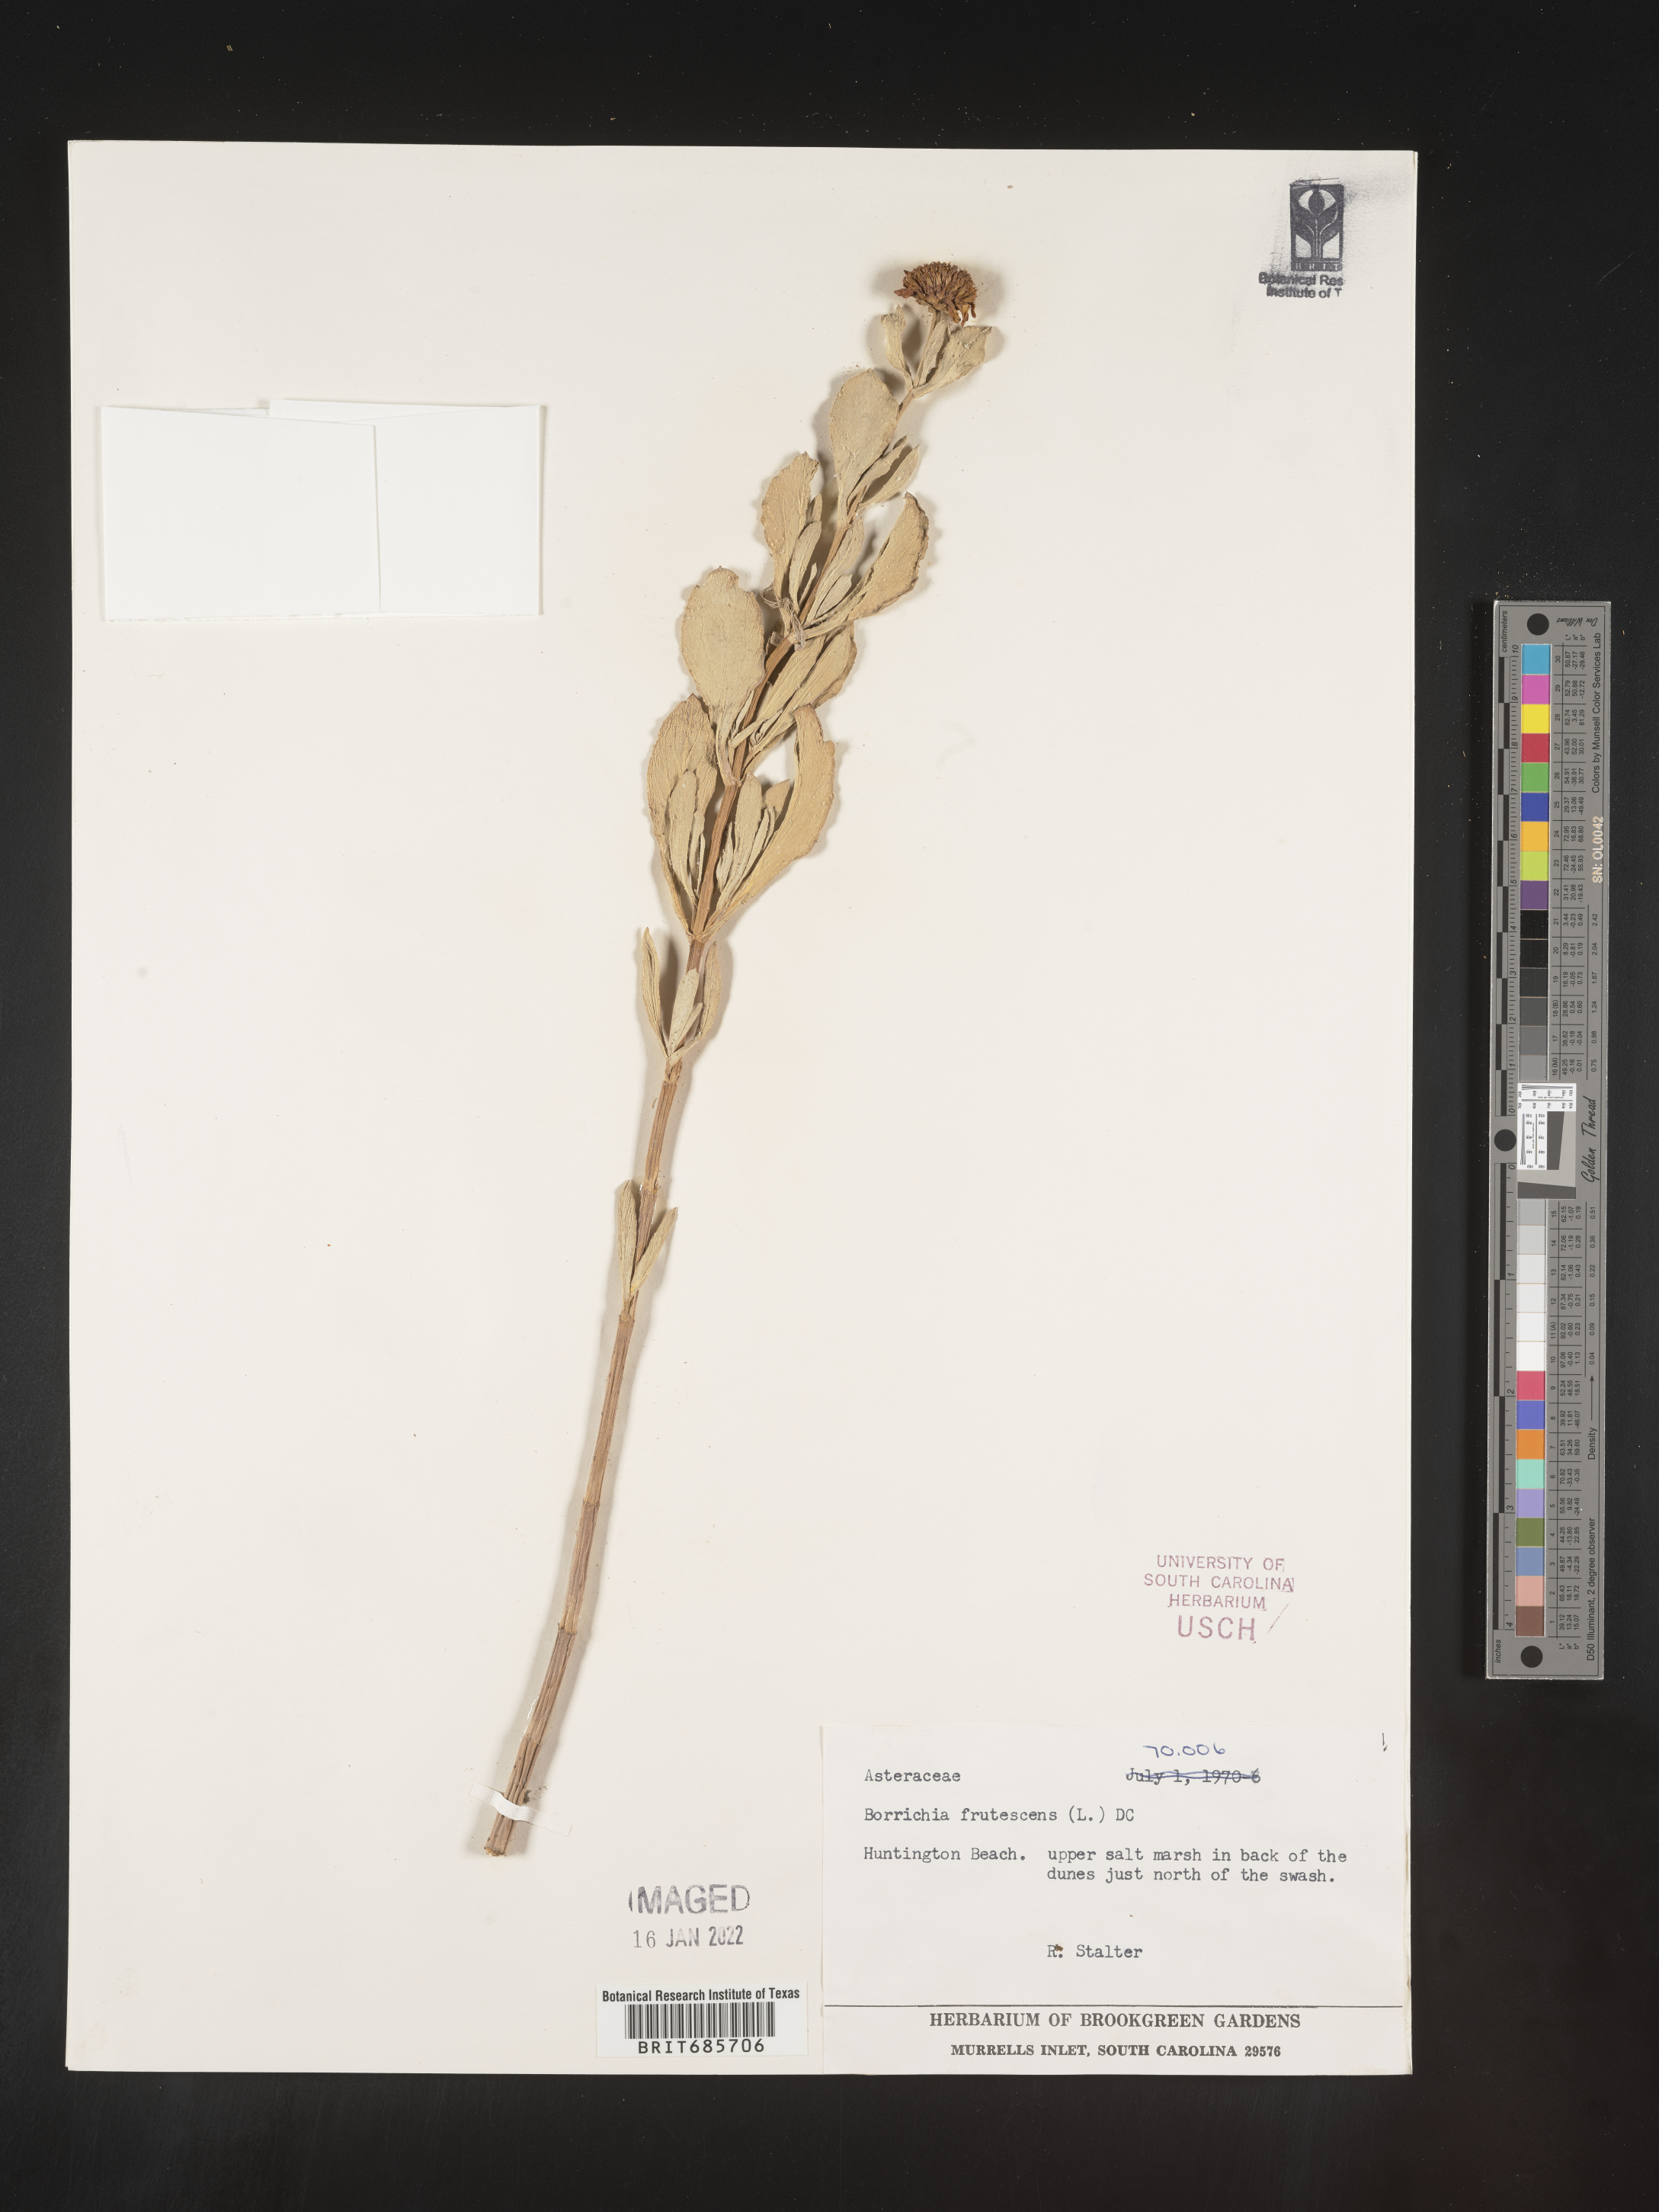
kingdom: Plantae
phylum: Tracheophyta
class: Magnoliopsida
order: Asterales
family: Asteraceae
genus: Borrichia
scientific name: Borrichia frutescens
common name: Sea oxeye
